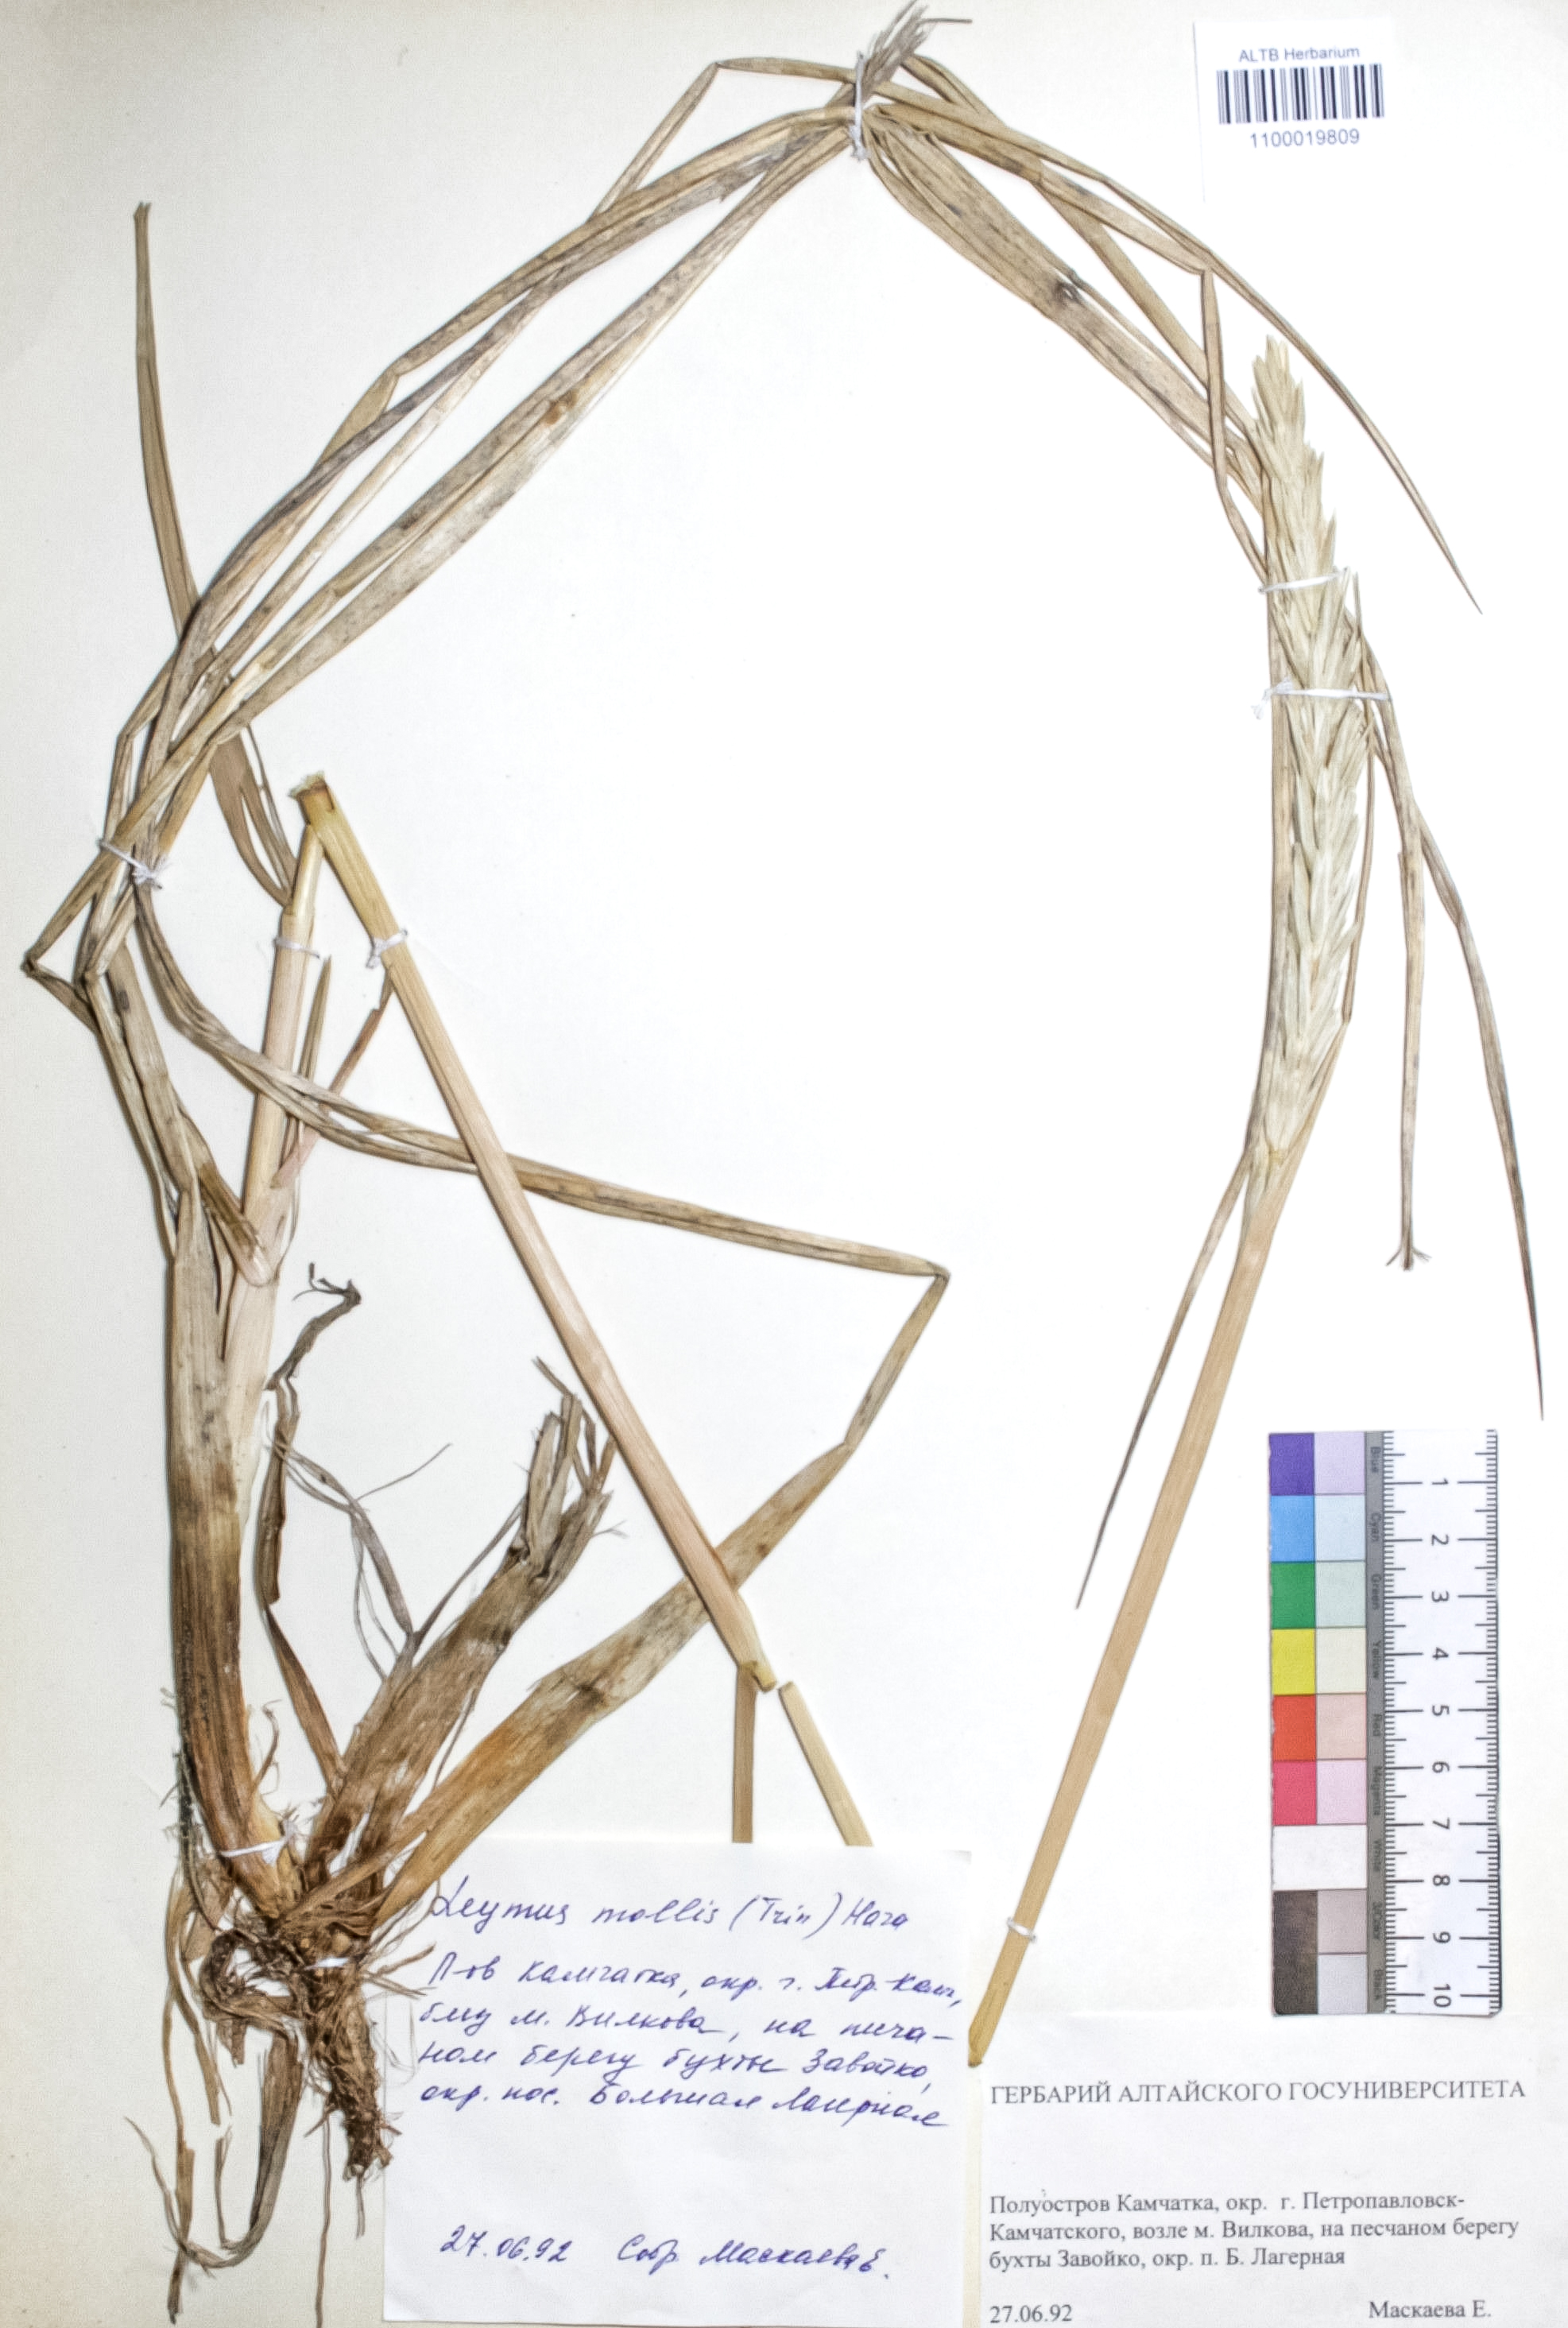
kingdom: Plantae
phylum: Tracheophyta
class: Liliopsida
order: Poales
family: Poaceae
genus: Leymus
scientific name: Leymus mollis
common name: American dune grass
